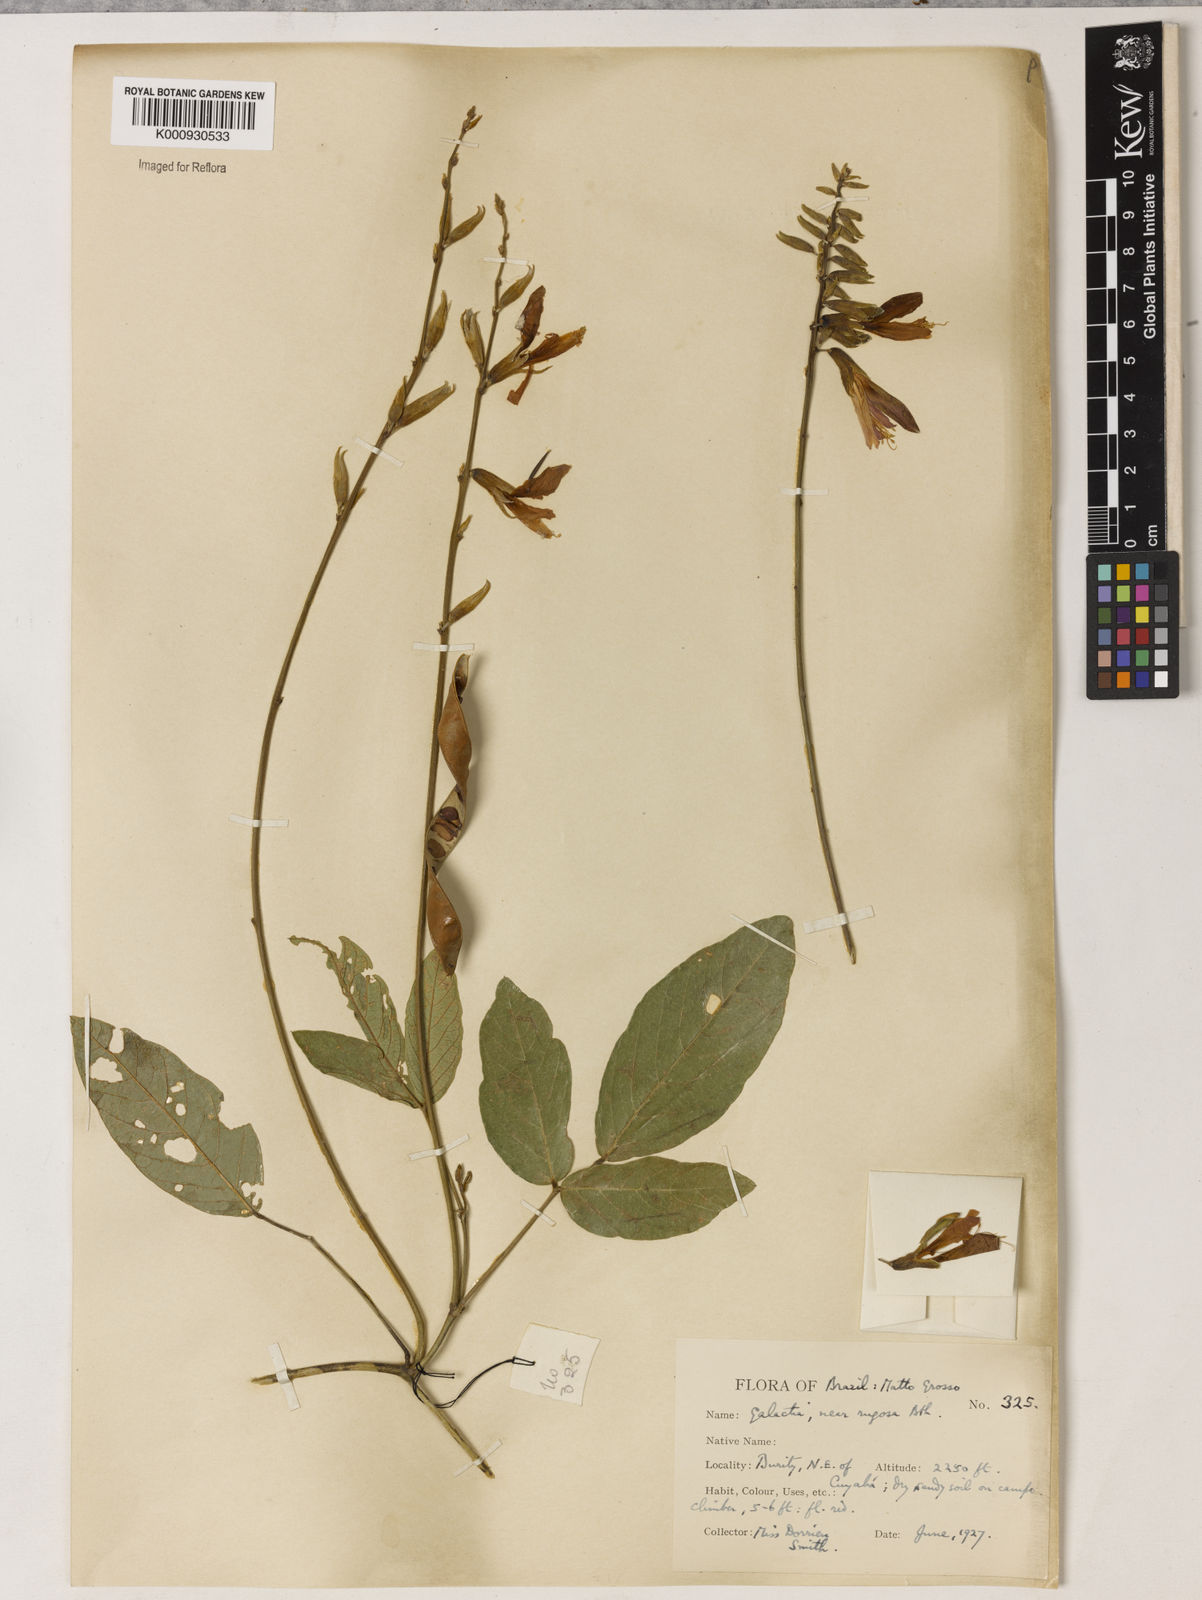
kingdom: Plantae
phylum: Tracheophyta
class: Magnoliopsida
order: Fabales
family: Fabaceae
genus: Galactia
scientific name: Galactia
